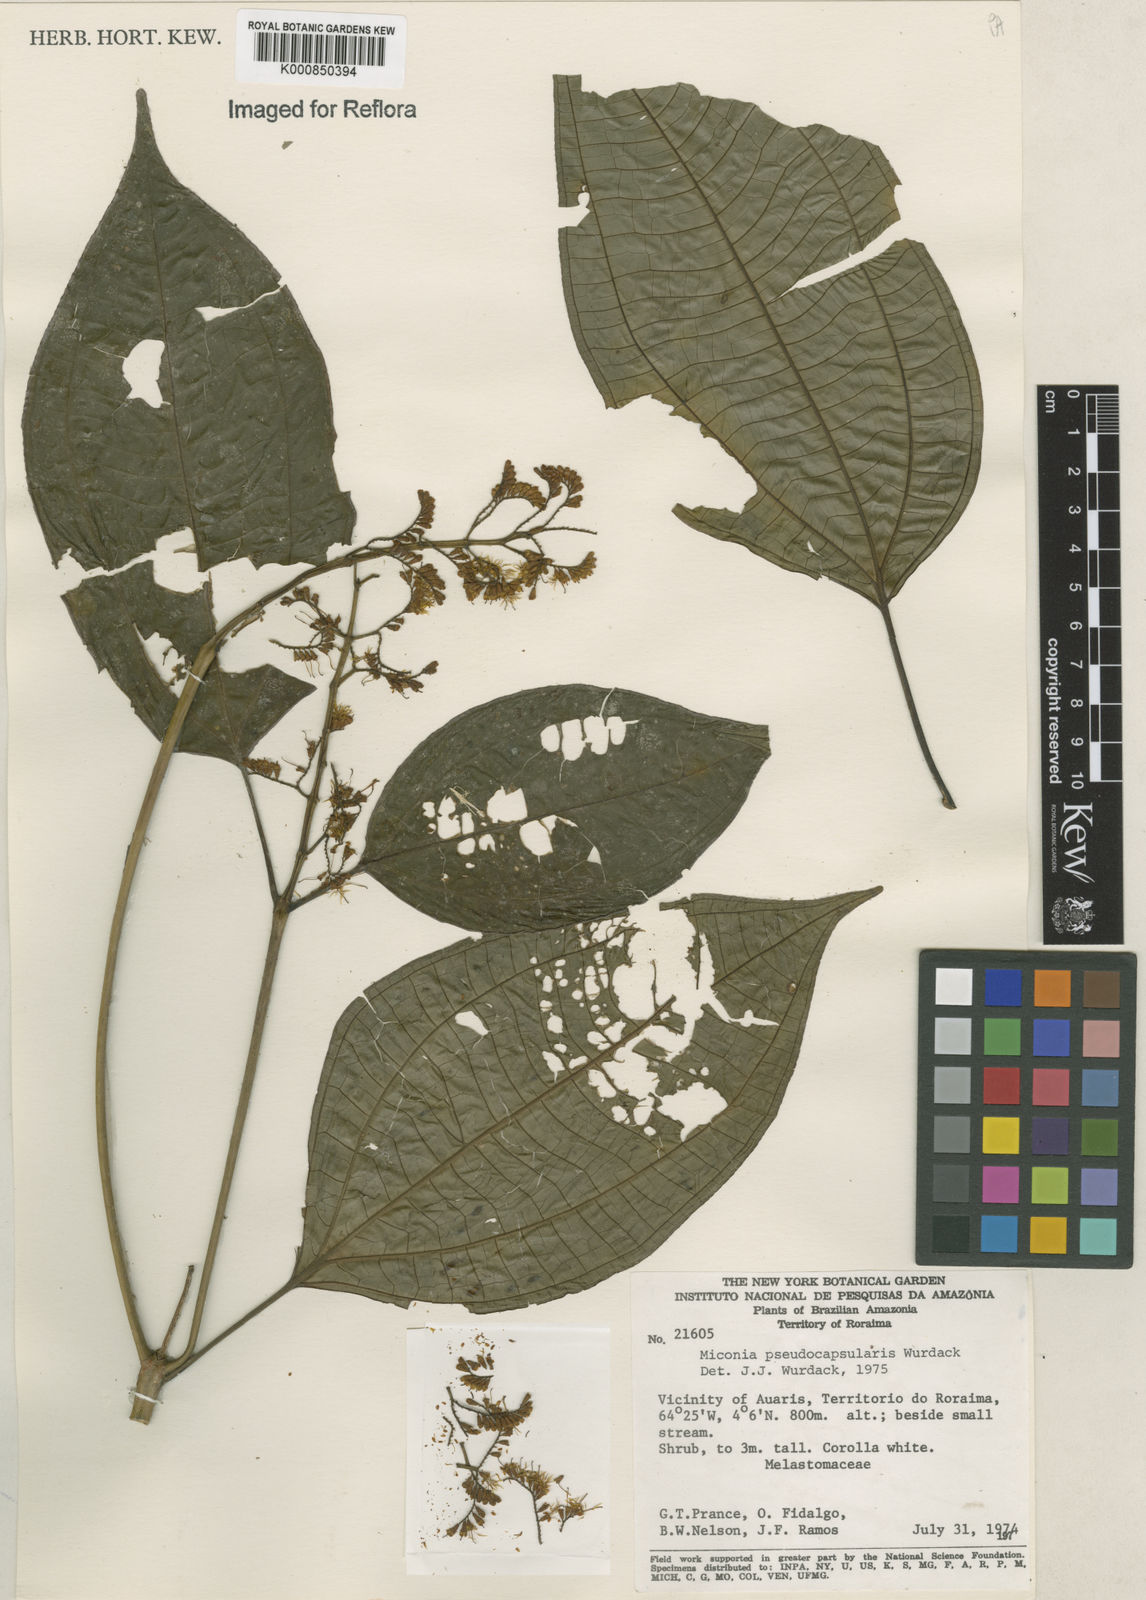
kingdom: Plantae
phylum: Tracheophyta
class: Magnoliopsida
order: Myrtales
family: Melastomataceae
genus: Miconia
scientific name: Miconia pseudocapsularis
